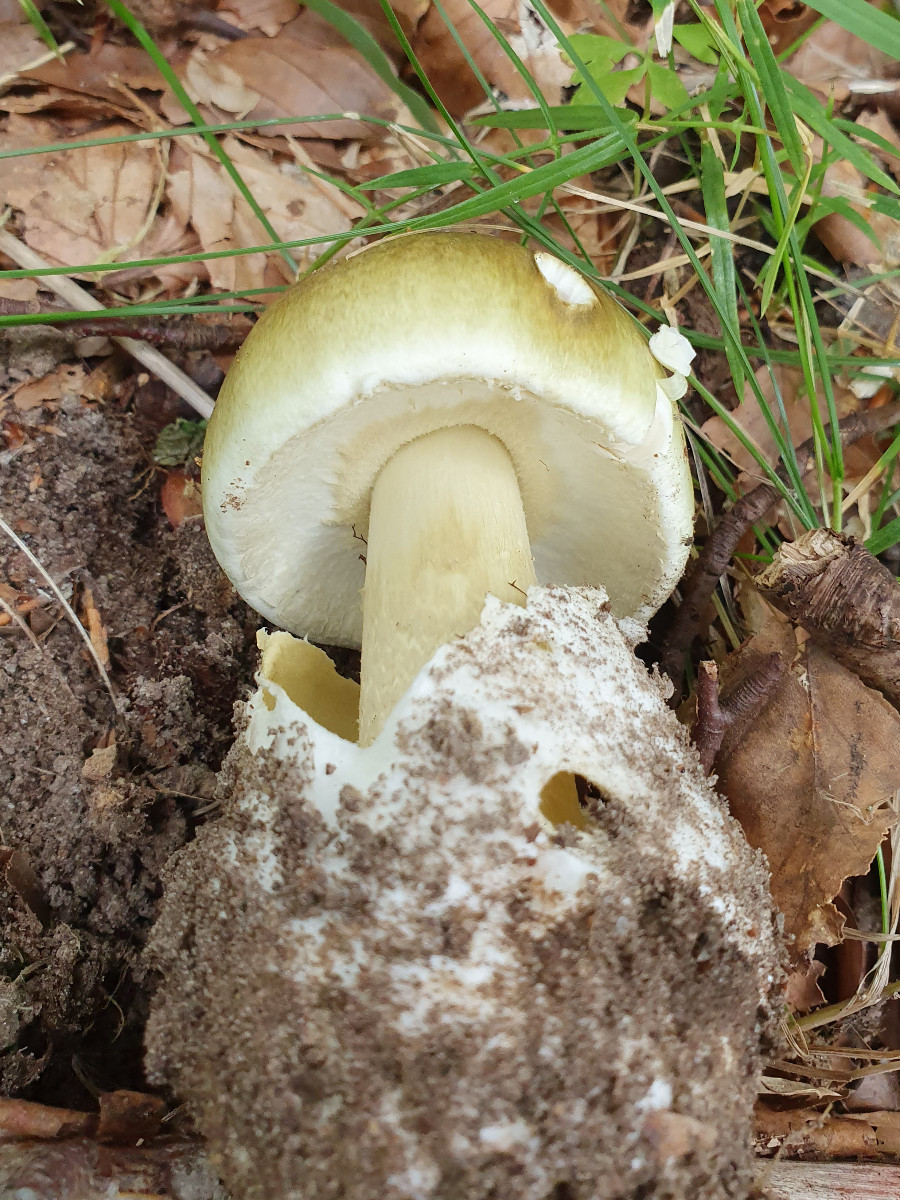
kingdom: Fungi
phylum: Basidiomycota
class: Agaricomycetes
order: Agaricales
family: Amanitaceae
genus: Amanita
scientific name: Amanita phalloides
